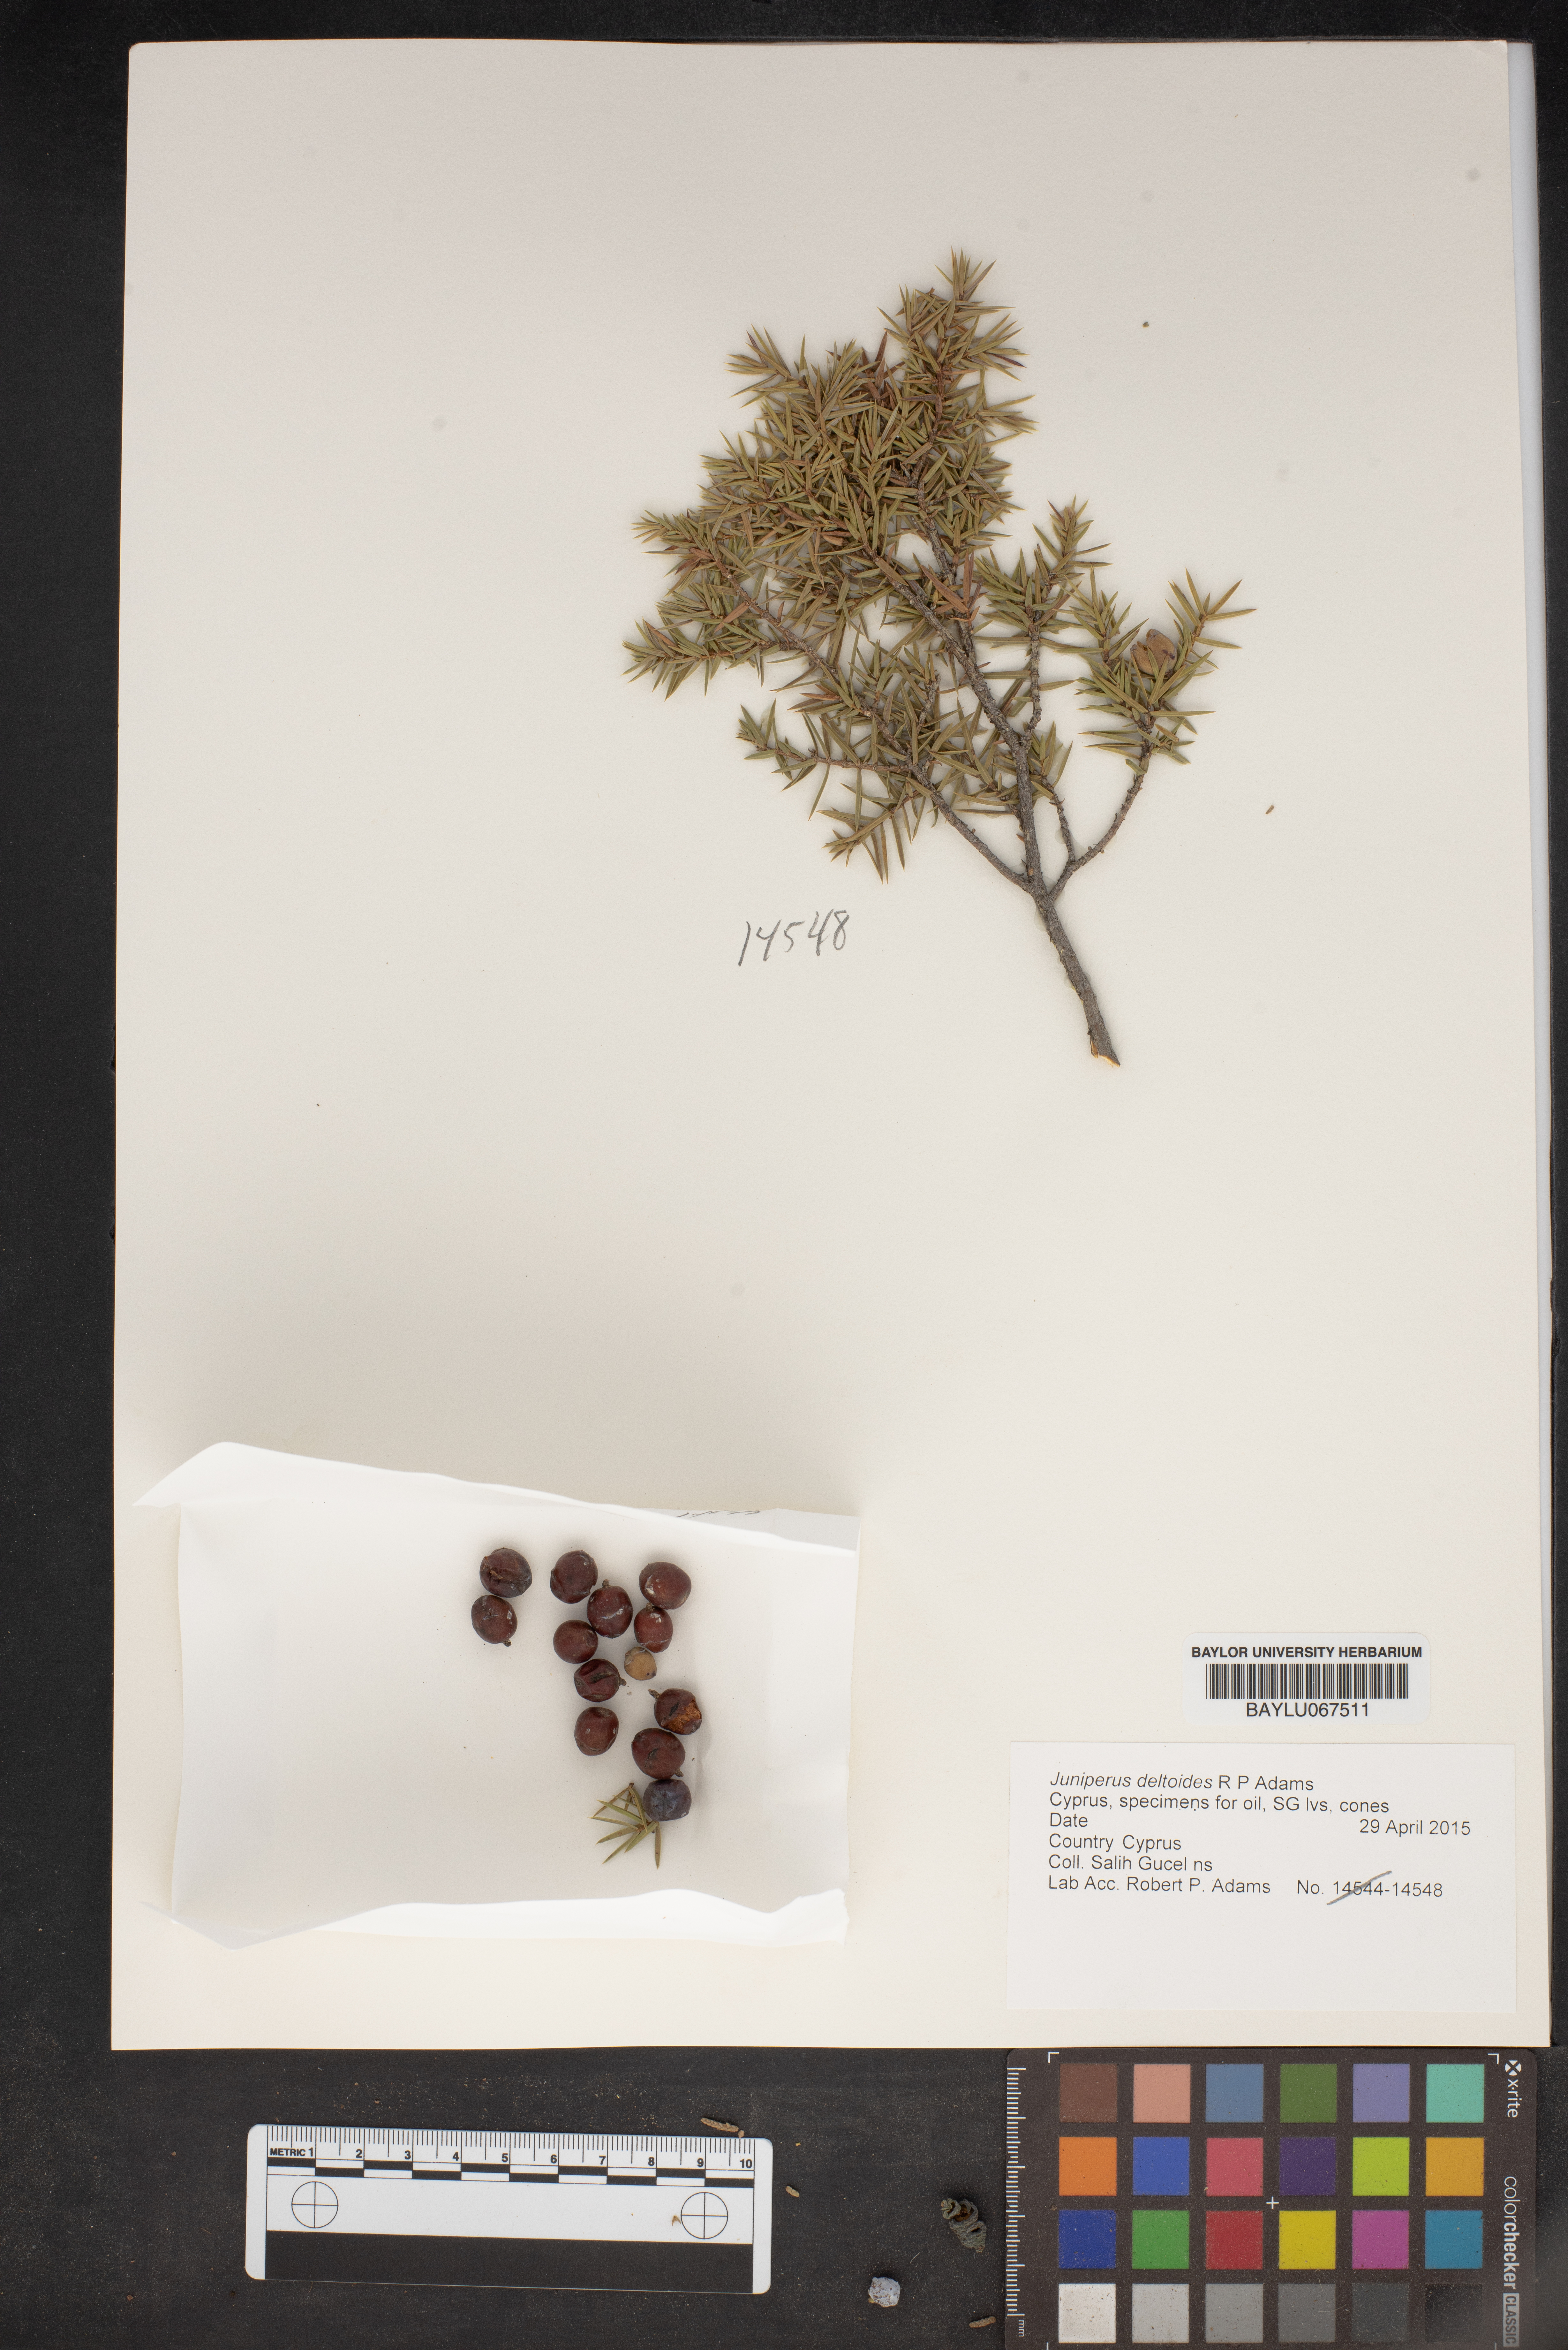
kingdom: Plantae
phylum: Tracheophyta
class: Pinopsida
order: Pinales
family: Cupressaceae
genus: Juniperus
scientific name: Juniperus oxycedrus
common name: Prickly juniper
